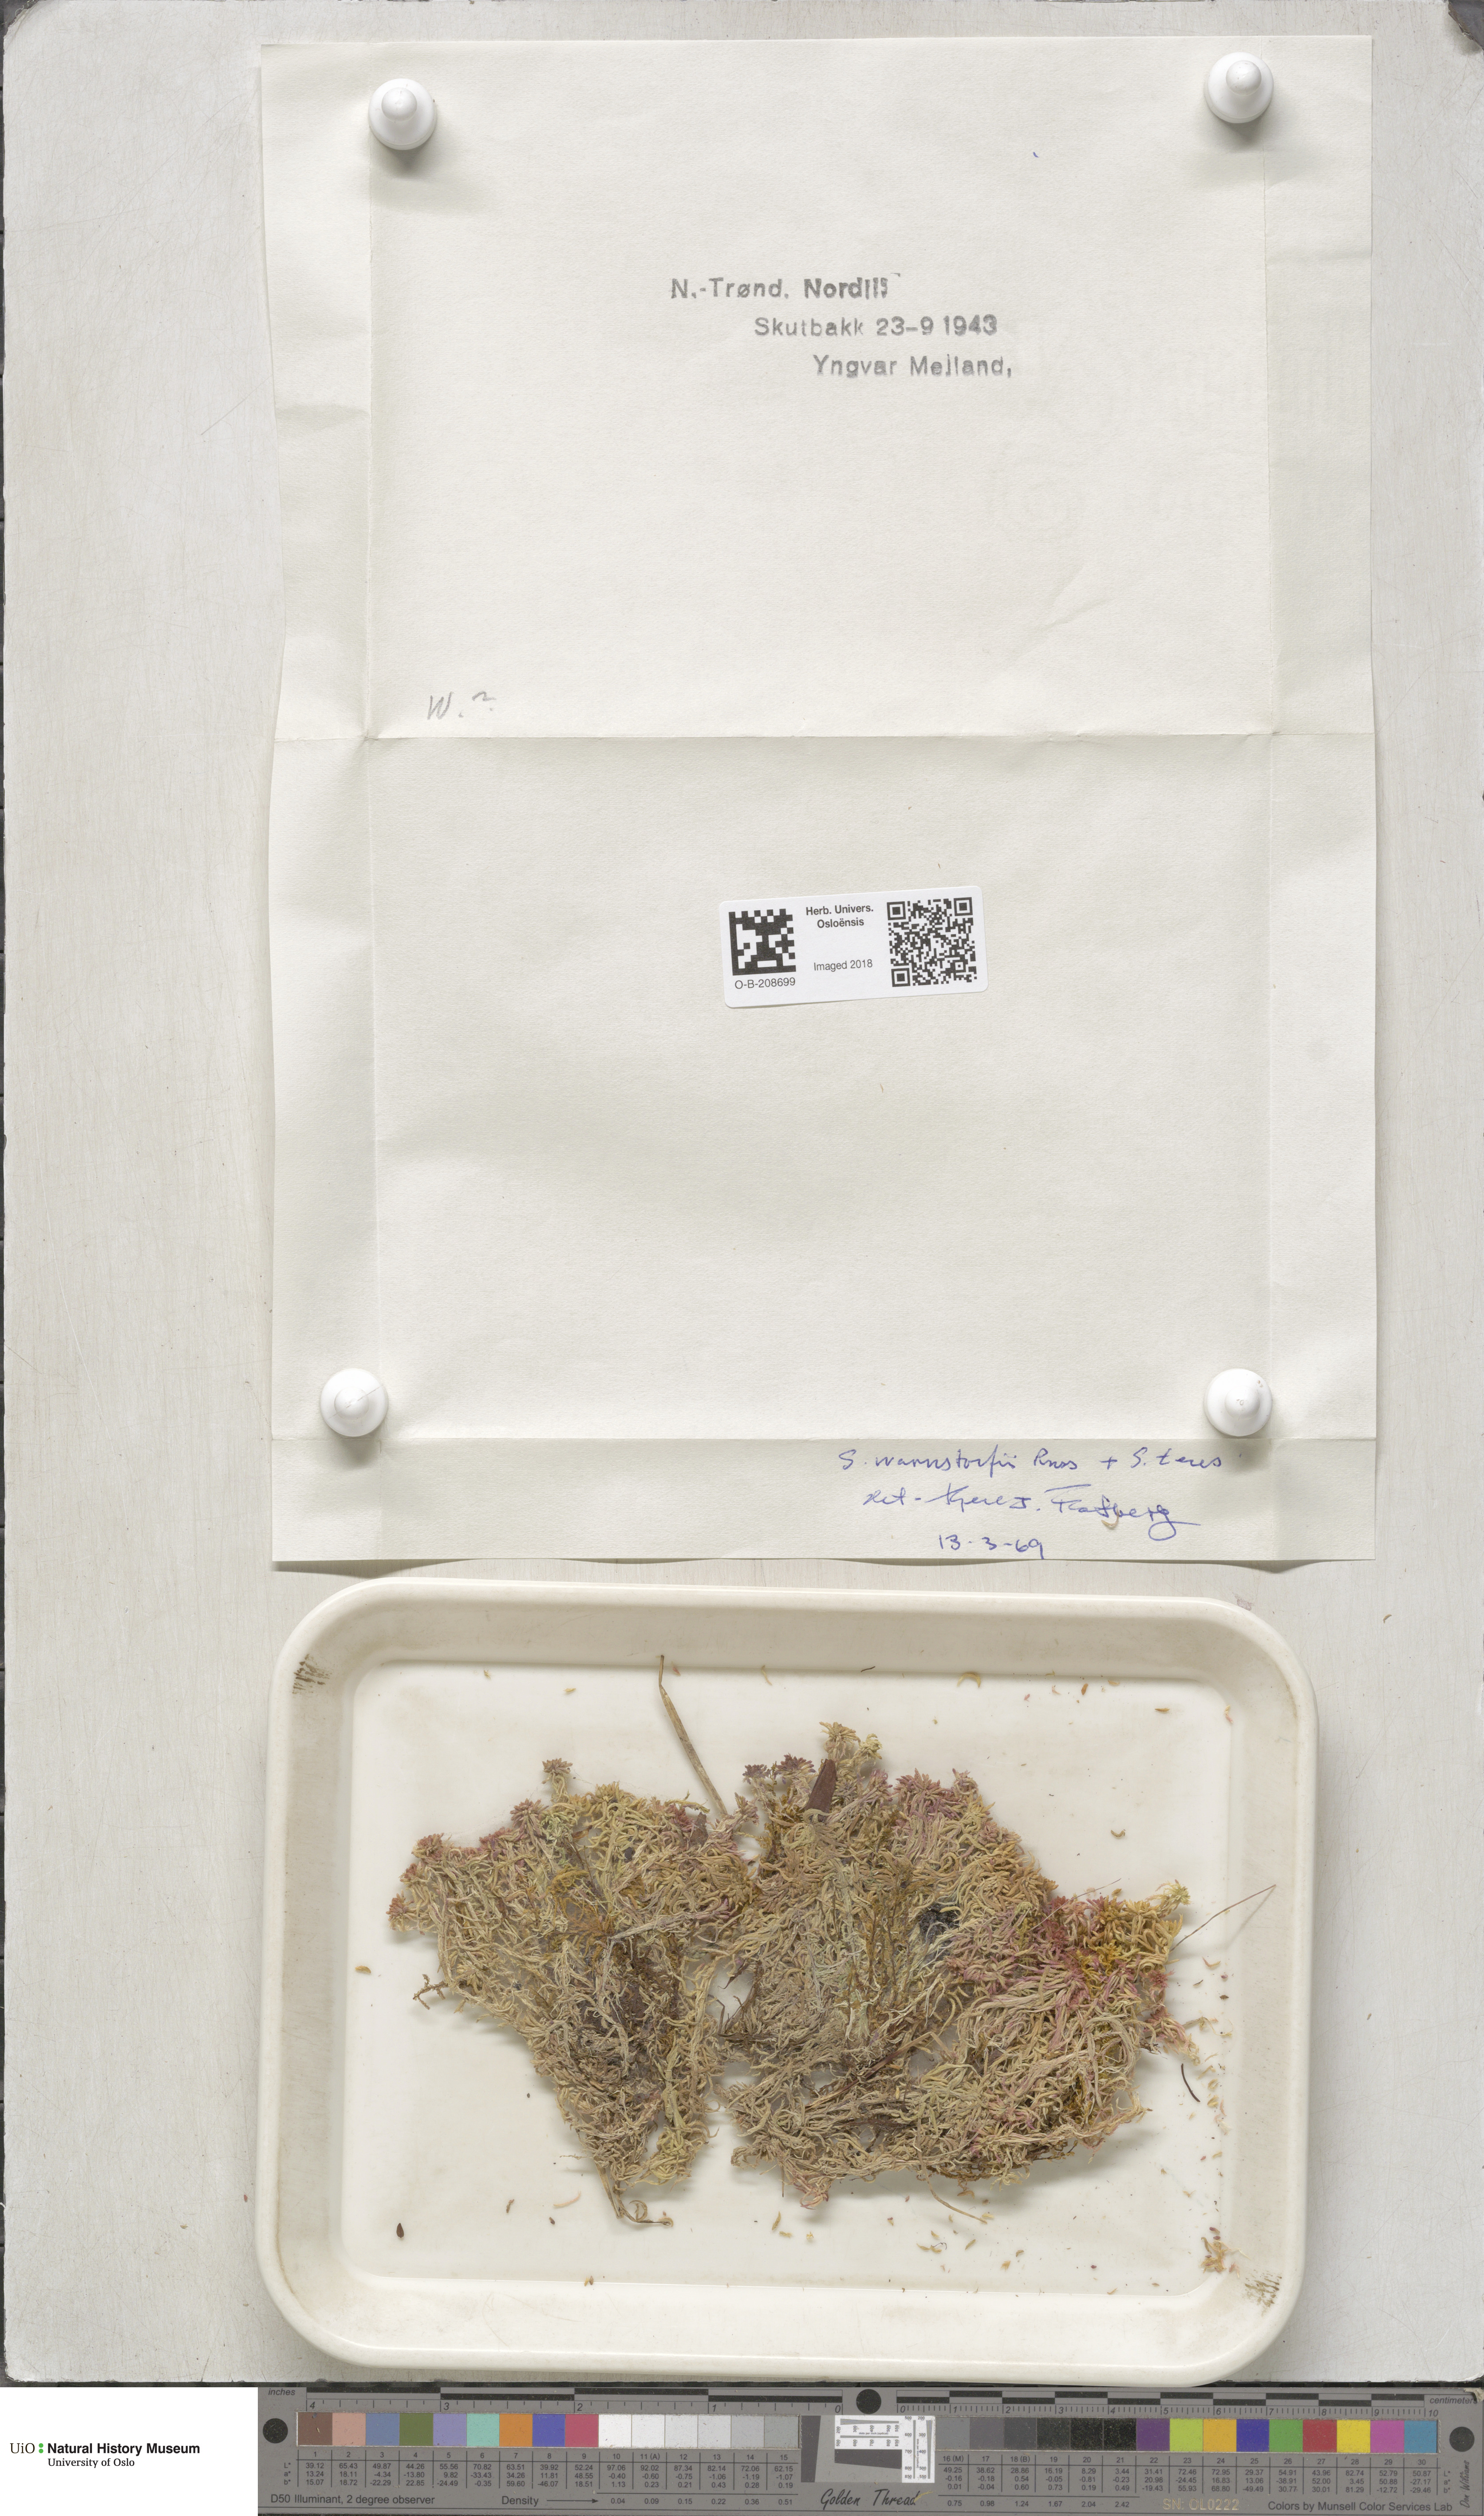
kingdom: Plantae
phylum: Bryophyta
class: Sphagnopsida
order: Sphagnales
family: Sphagnaceae
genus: Sphagnum
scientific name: Sphagnum warnstorfii
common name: Warnstorf's peat moss
